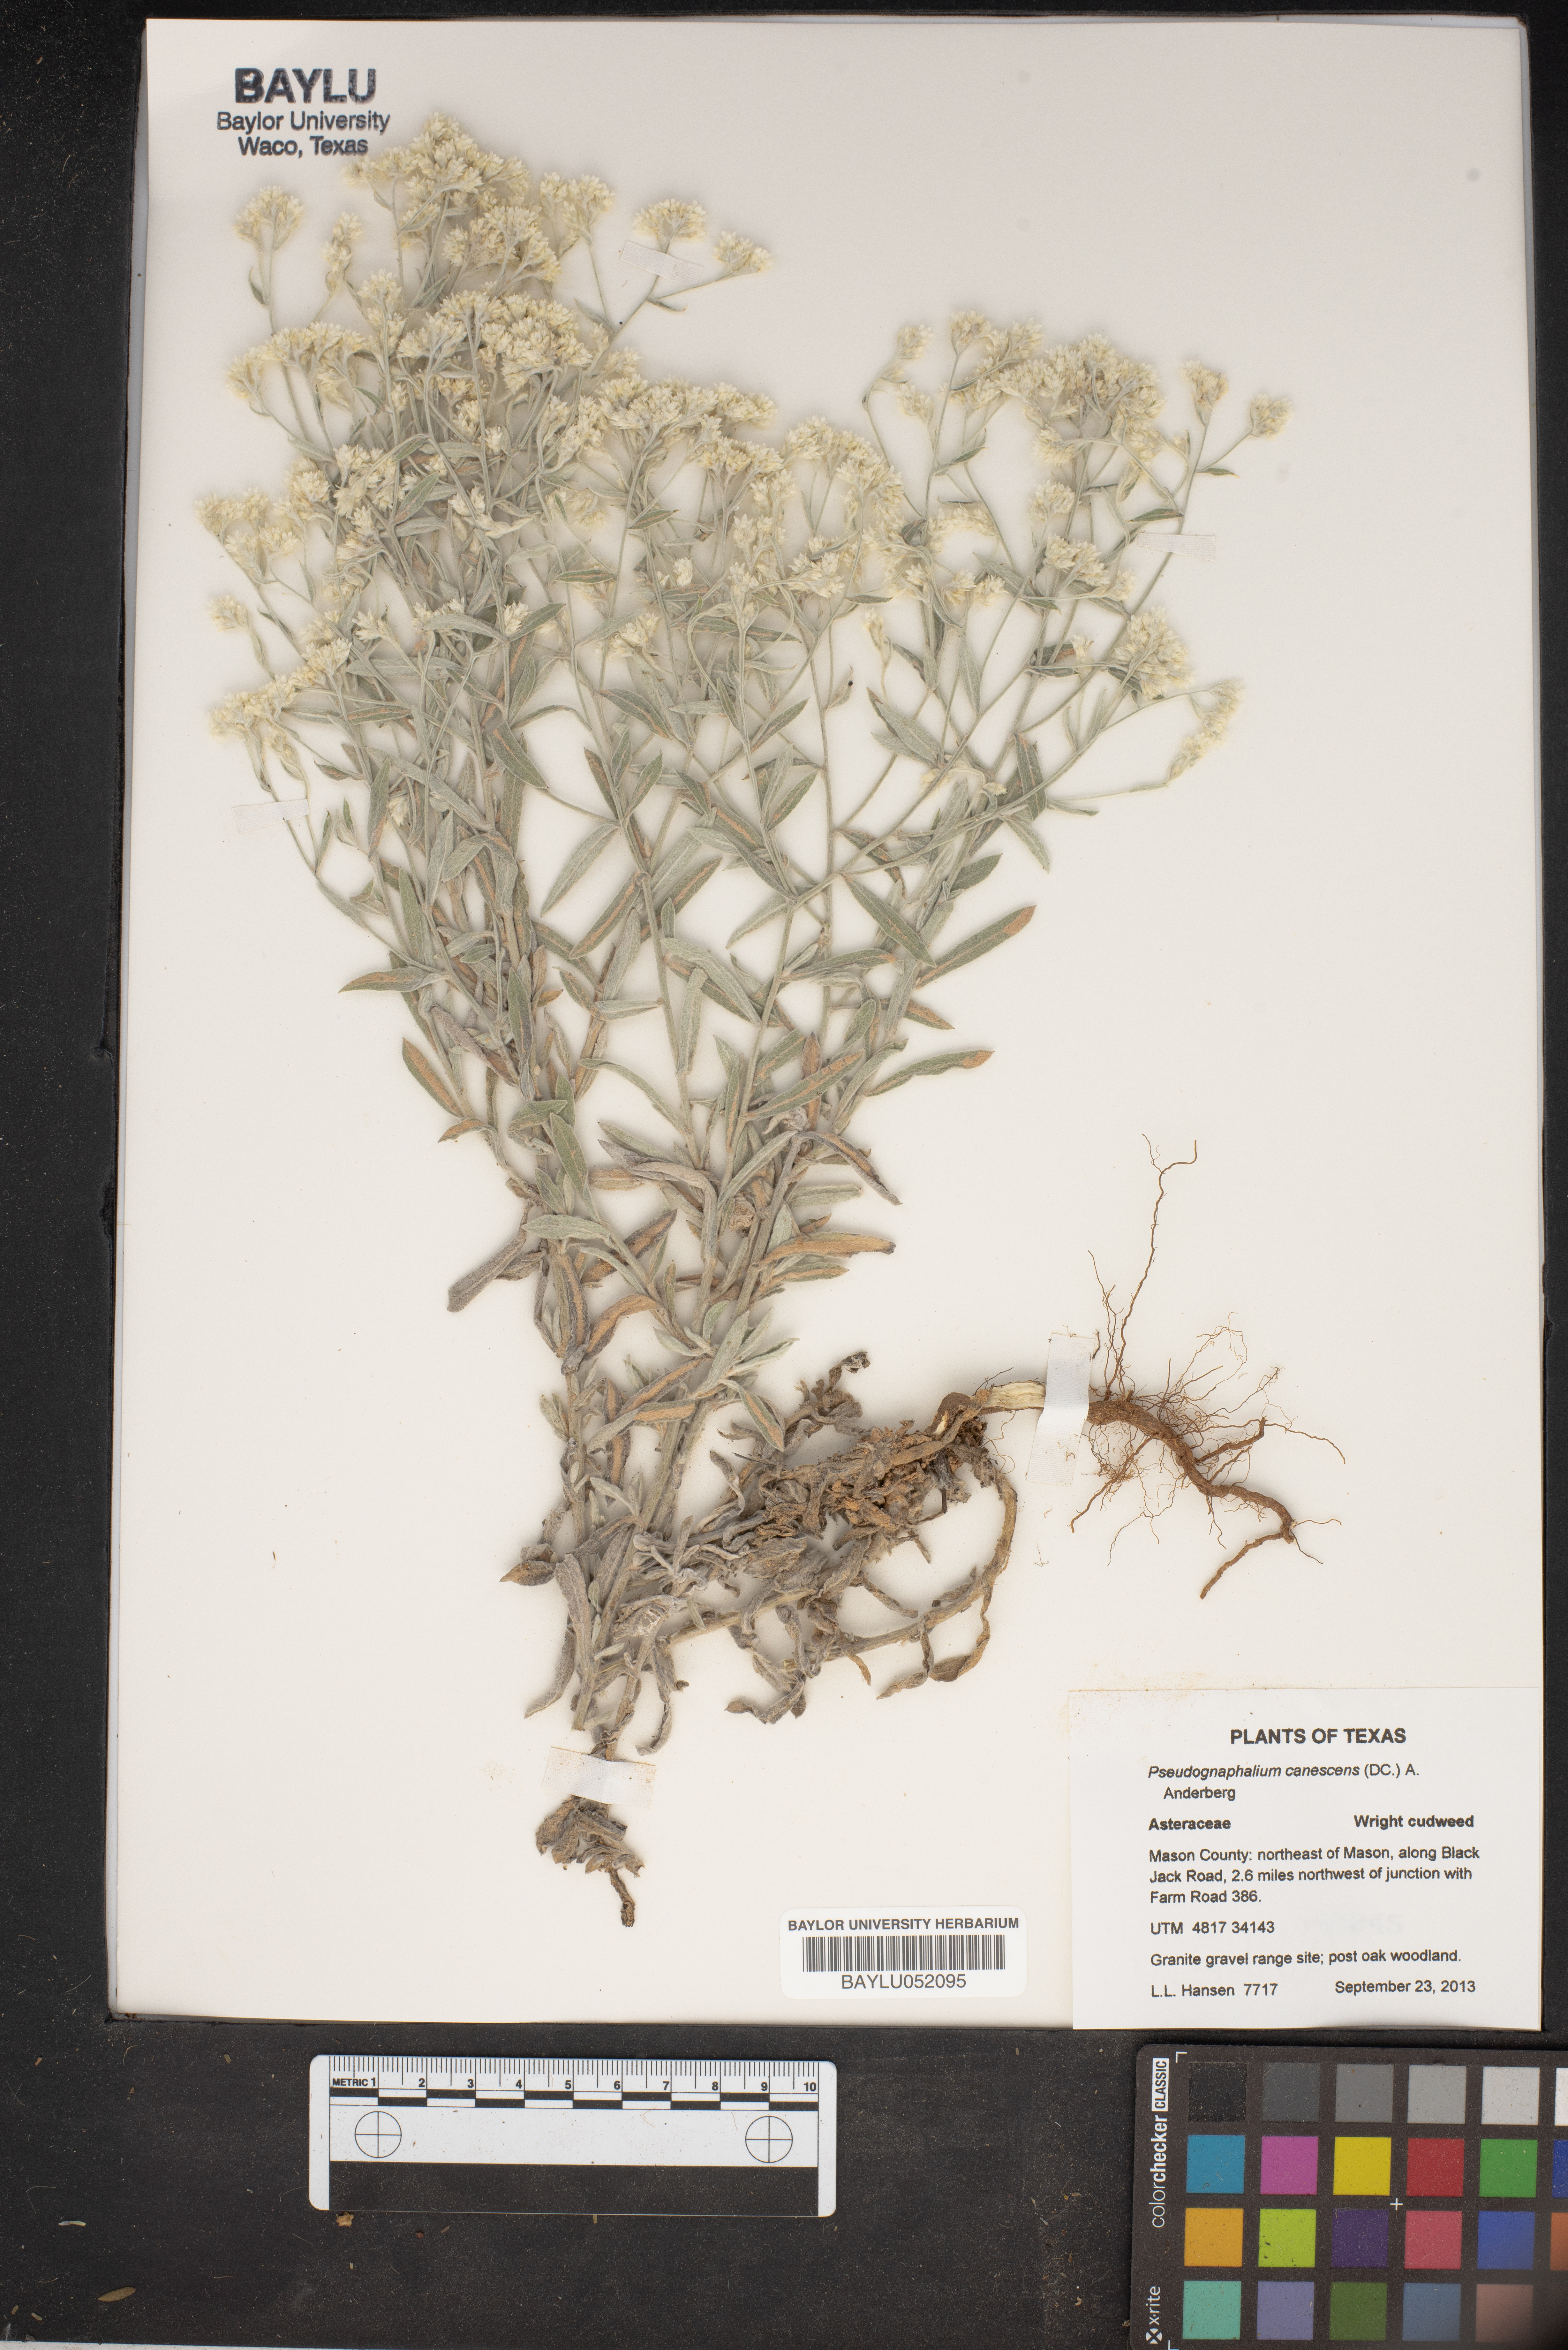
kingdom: Plantae
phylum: Tracheophyta
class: Magnoliopsida
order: Asterales
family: Asteraceae
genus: Pseudognaphalium
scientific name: Pseudognaphalium canescens
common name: Wright's rabbit-tobacco
